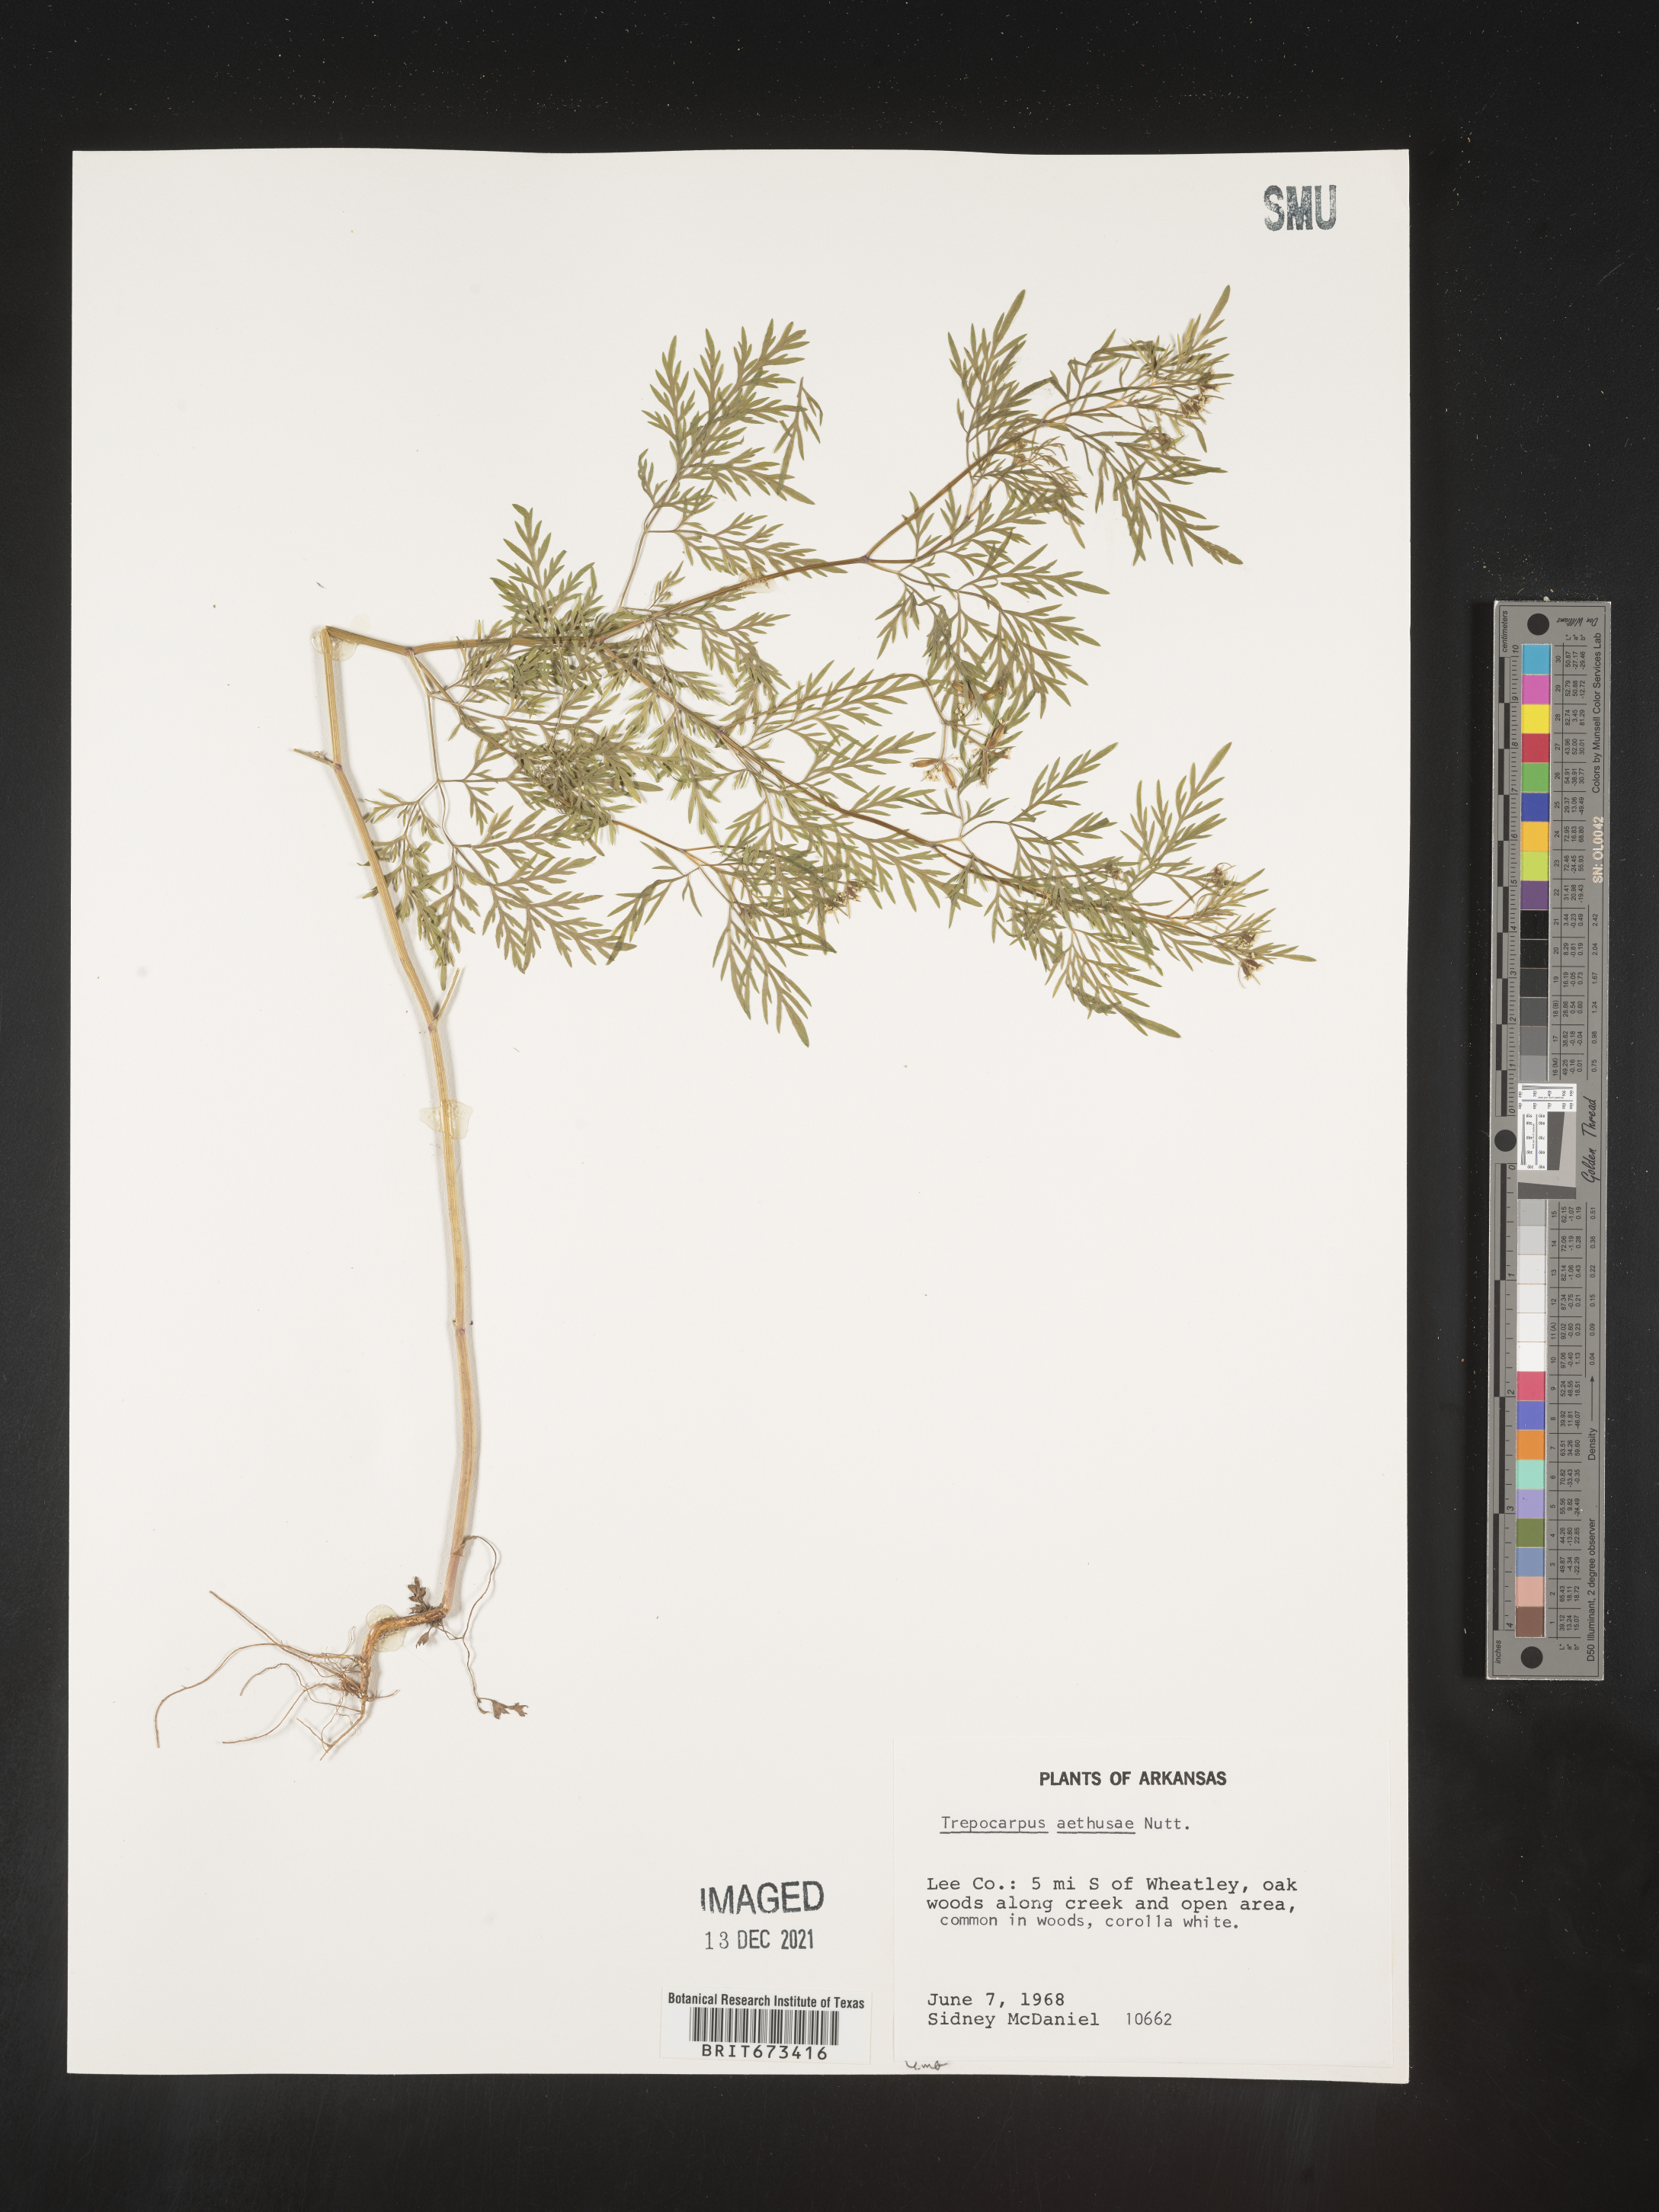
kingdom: Plantae
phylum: Tracheophyta
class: Magnoliopsida
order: Apiales
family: Apiaceae
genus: Trepocarpus
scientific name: Trepocarpus aethusae
